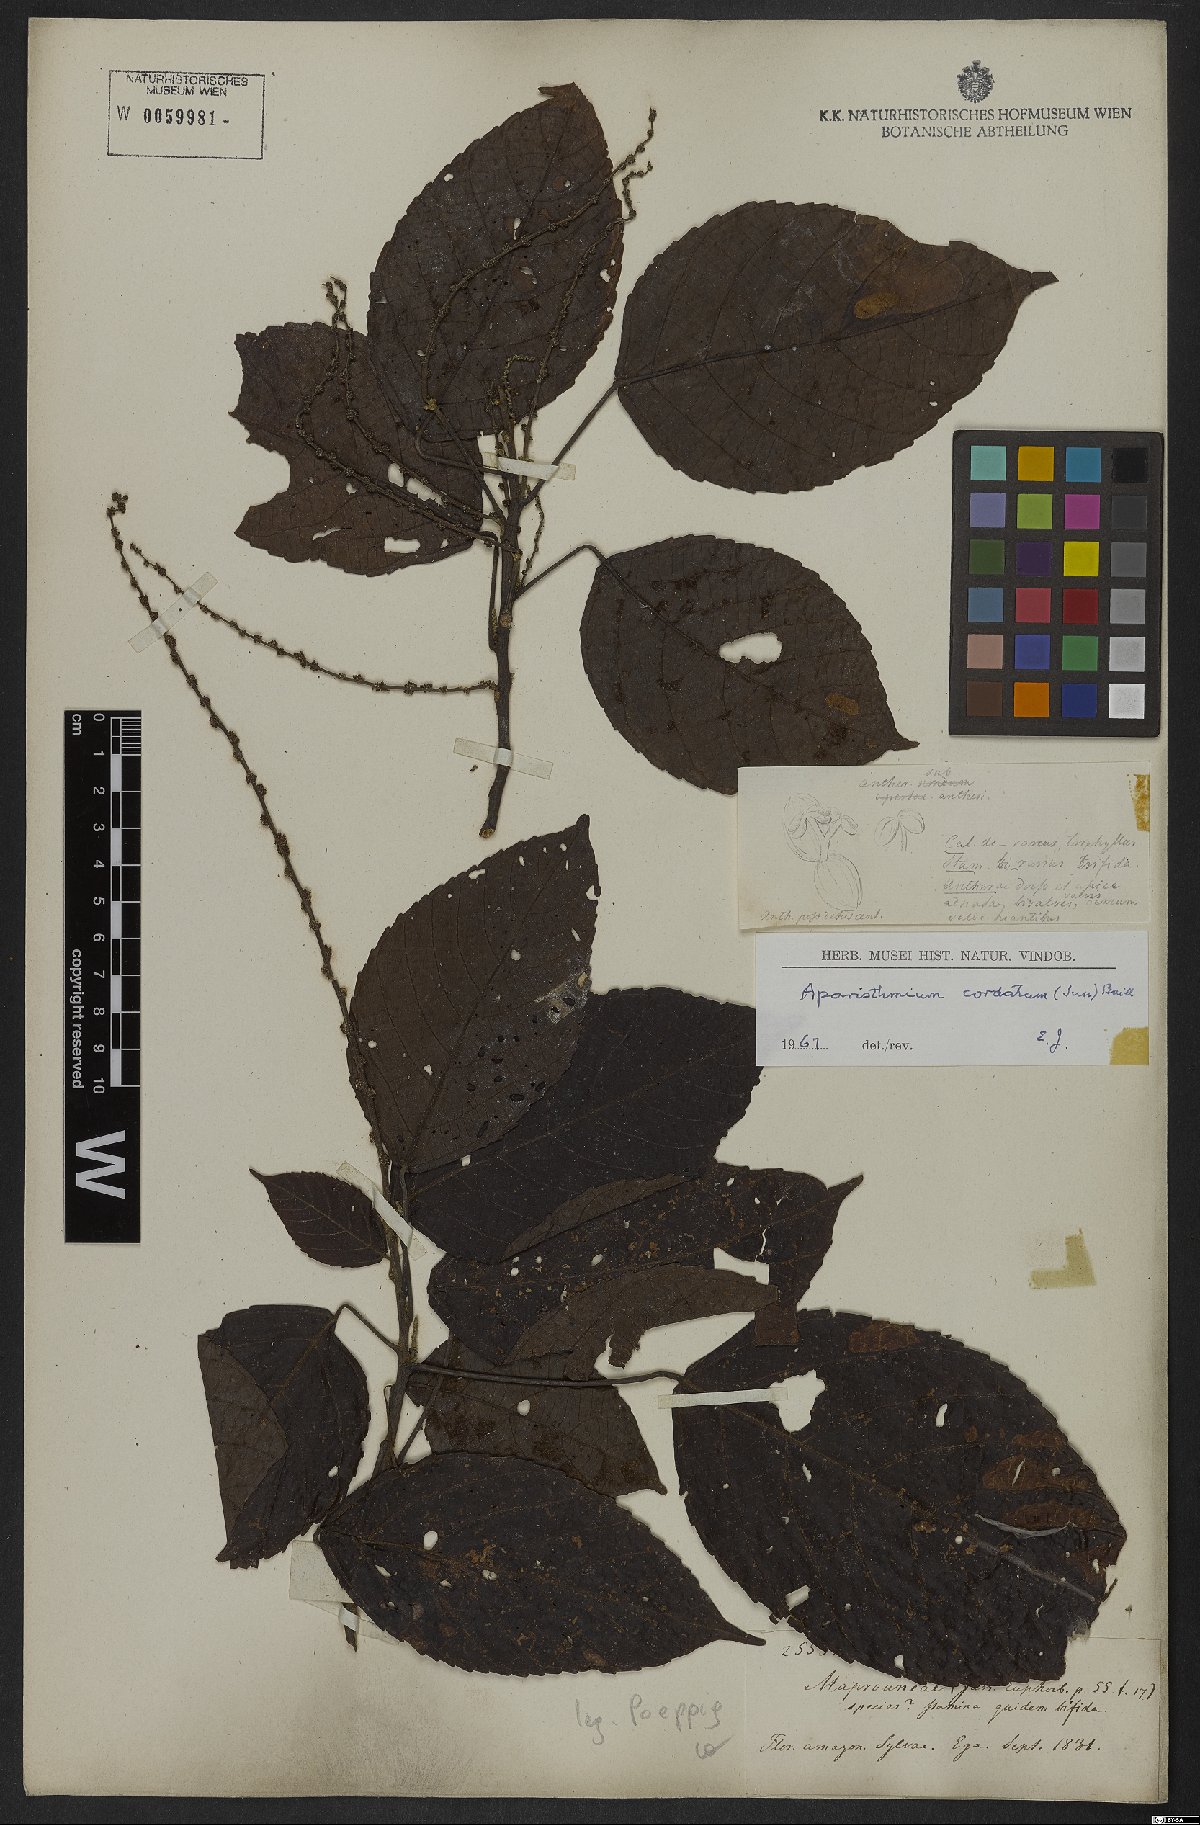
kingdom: Plantae
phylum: Tracheophyta
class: Magnoliopsida
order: Malpighiales
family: Euphorbiaceae
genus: Aparisthmium
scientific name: Aparisthmium cordatum
